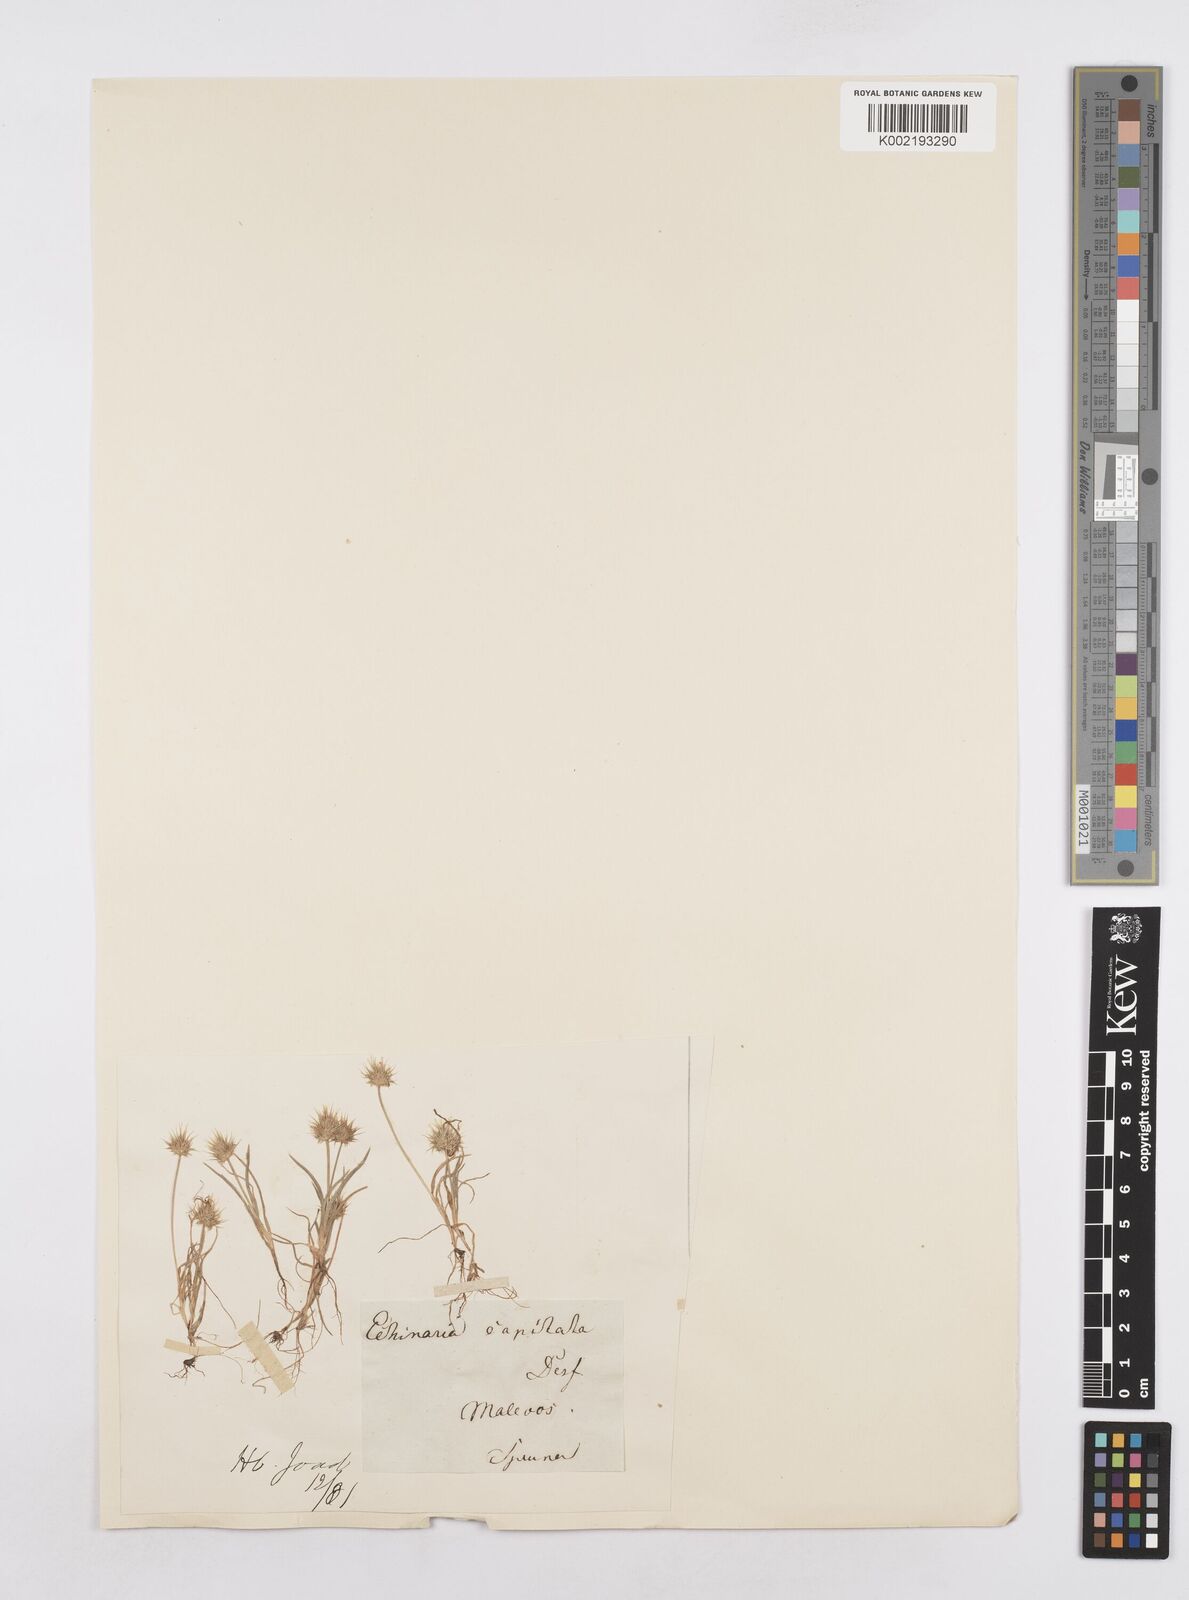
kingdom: Plantae
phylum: Tracheophyta
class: Liliopsida
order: Poales
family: Poaceae
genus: Echinaria
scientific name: Echinaria capitata
